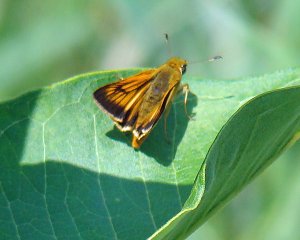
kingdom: Animalia
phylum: Arthropoda
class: Insecta
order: Lepidoptera
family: Hesperiidae
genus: Atrytone
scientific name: Atrytone delaware
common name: Delaware Skipper
